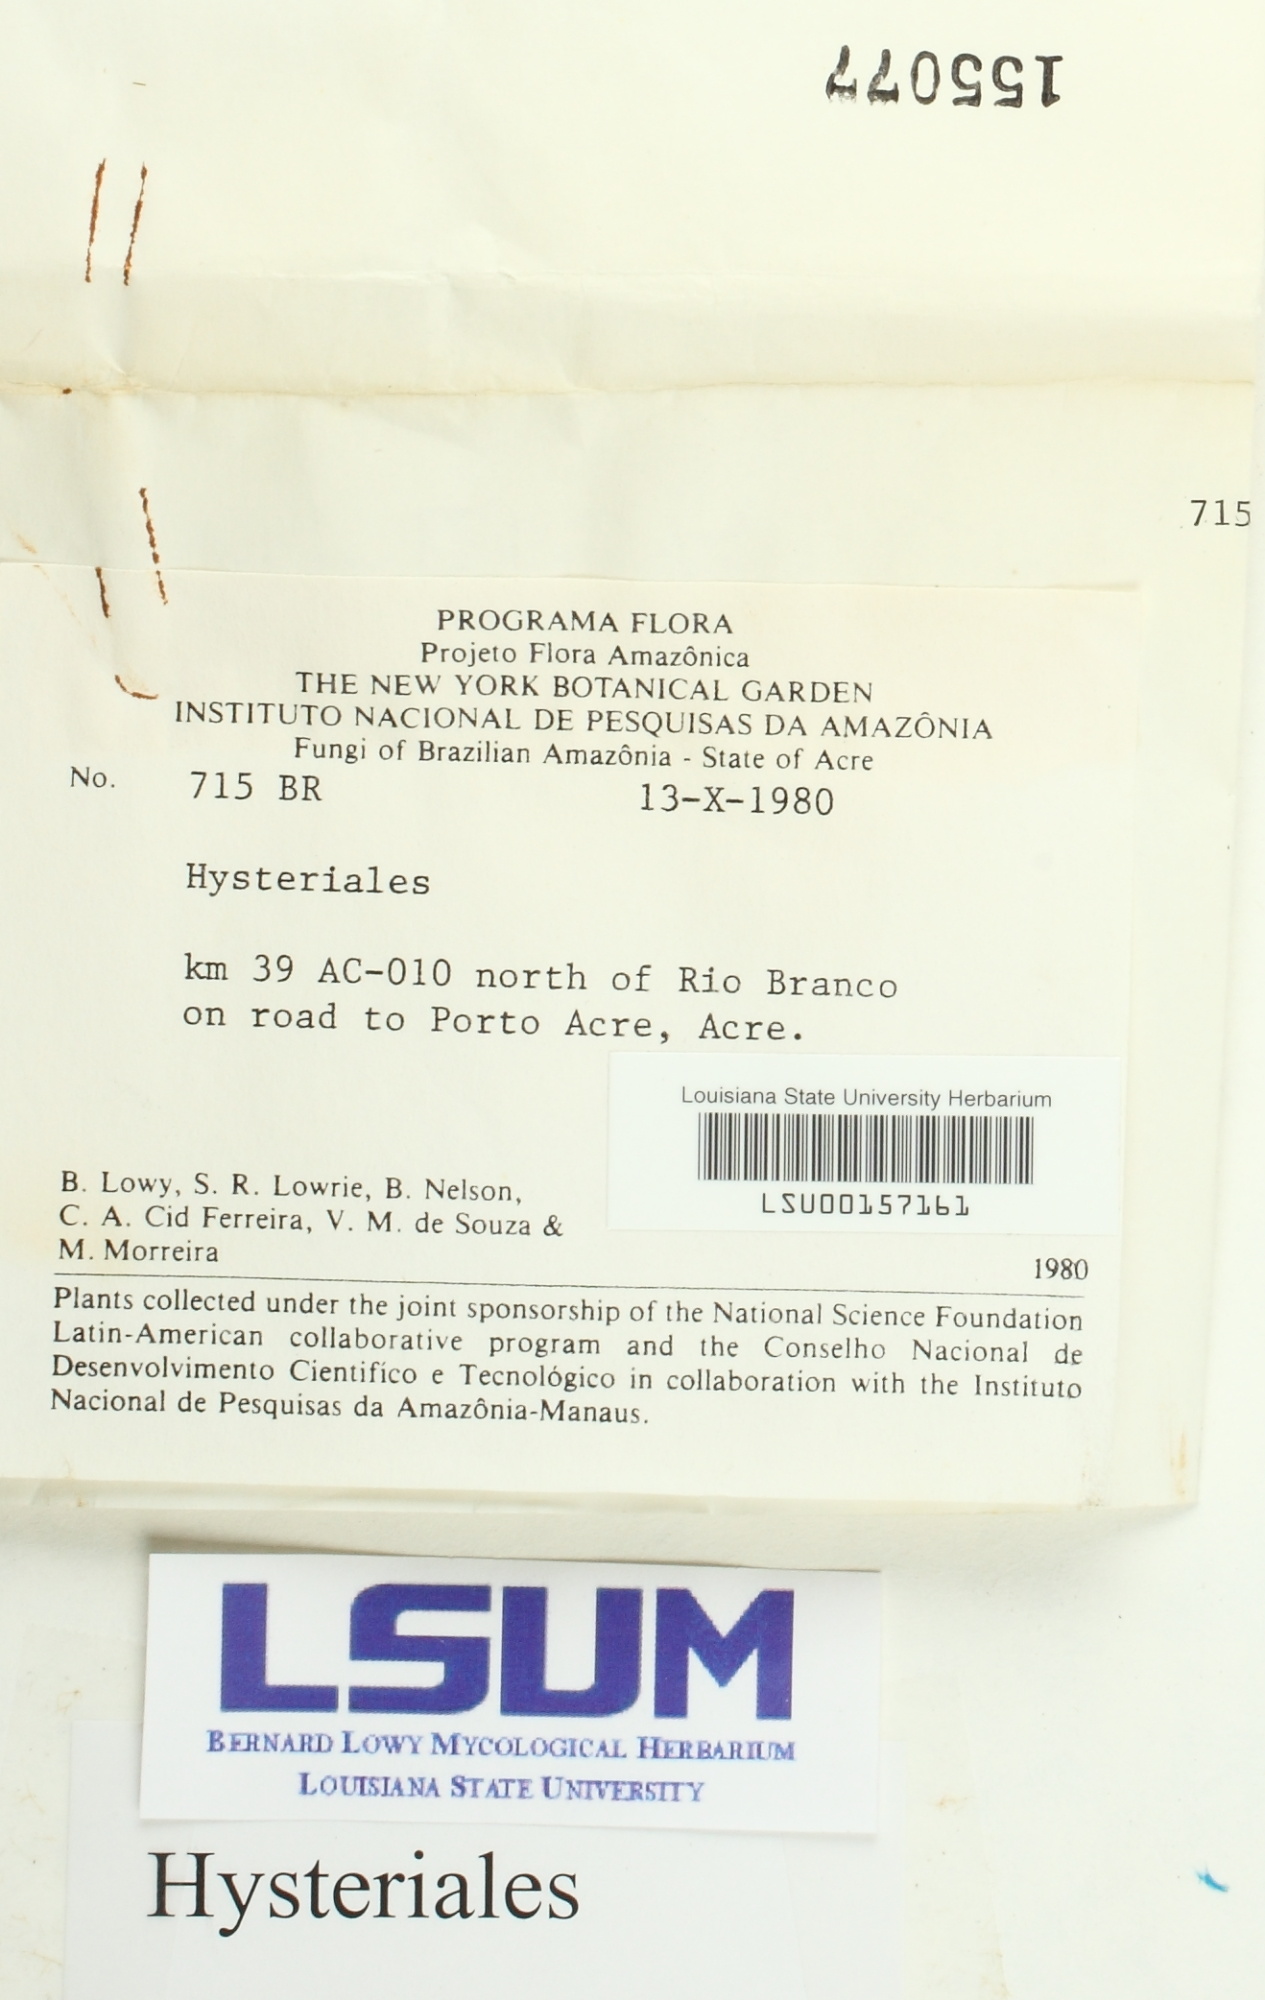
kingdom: Fungi
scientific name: Fungi
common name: Fungi
